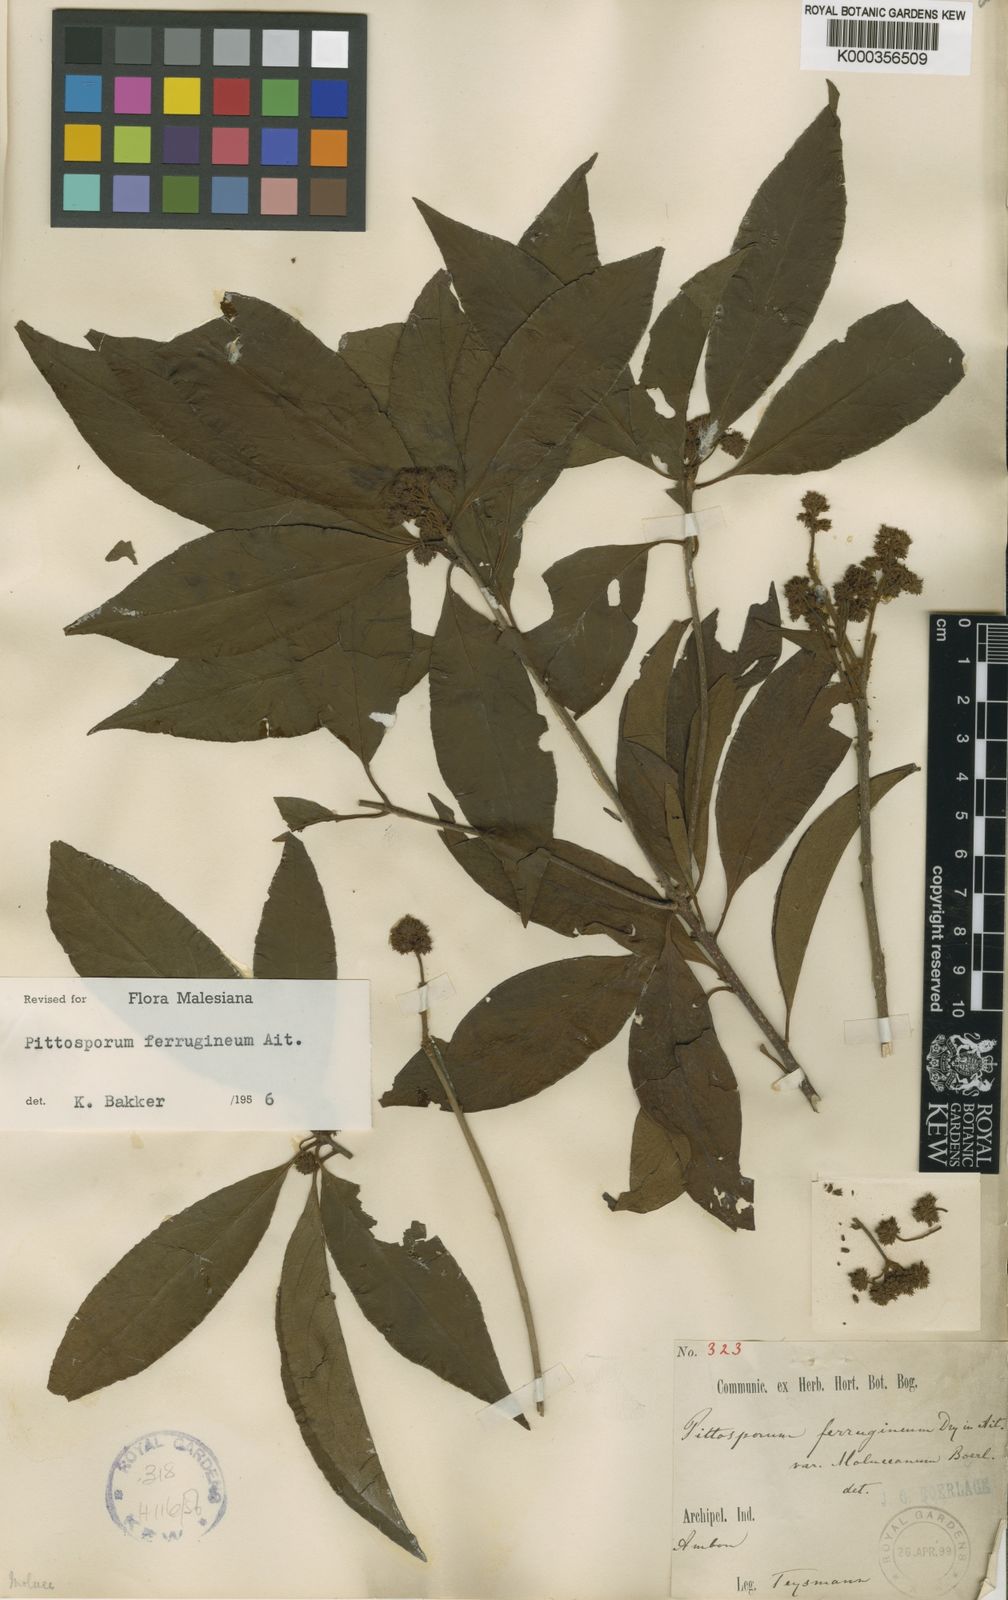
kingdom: Plantae
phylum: Tracheophyta
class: Magnoliopsida
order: Apiales
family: Pittosporaceae
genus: Pittosporum
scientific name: Pittosporum ferrugineum
